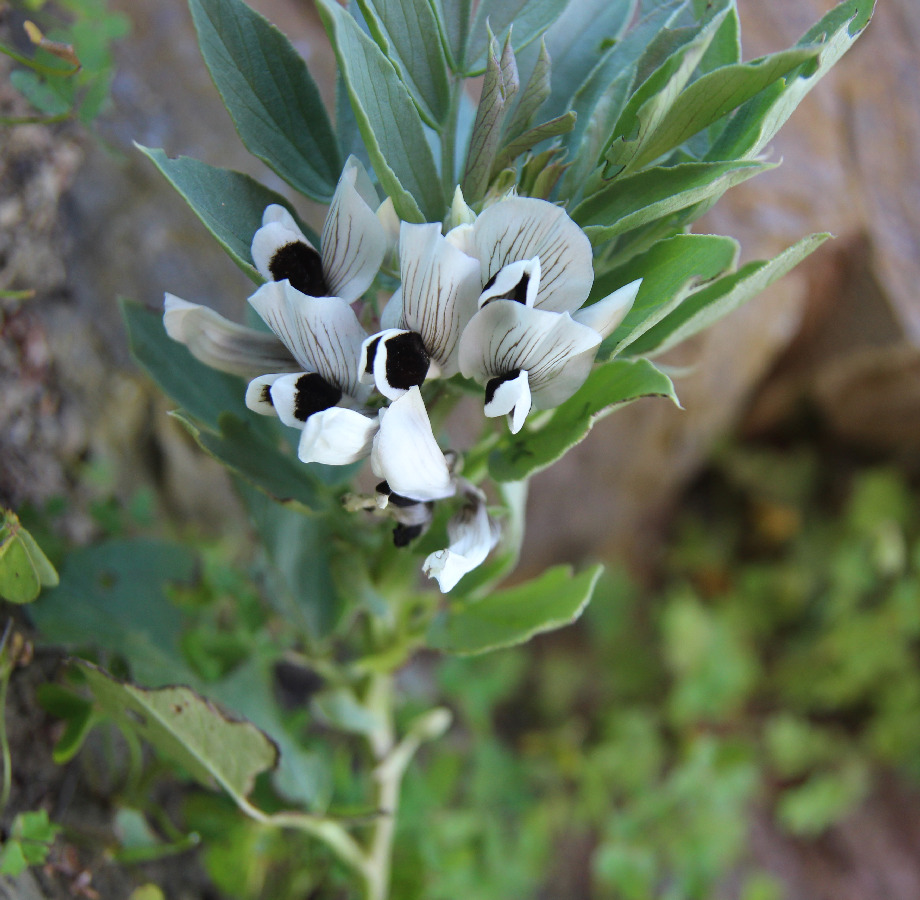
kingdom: Plantae
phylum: Tracheophyta
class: Magnoliopsida
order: Fabales
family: Fabaceae
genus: Vicia
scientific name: Vicia faba
